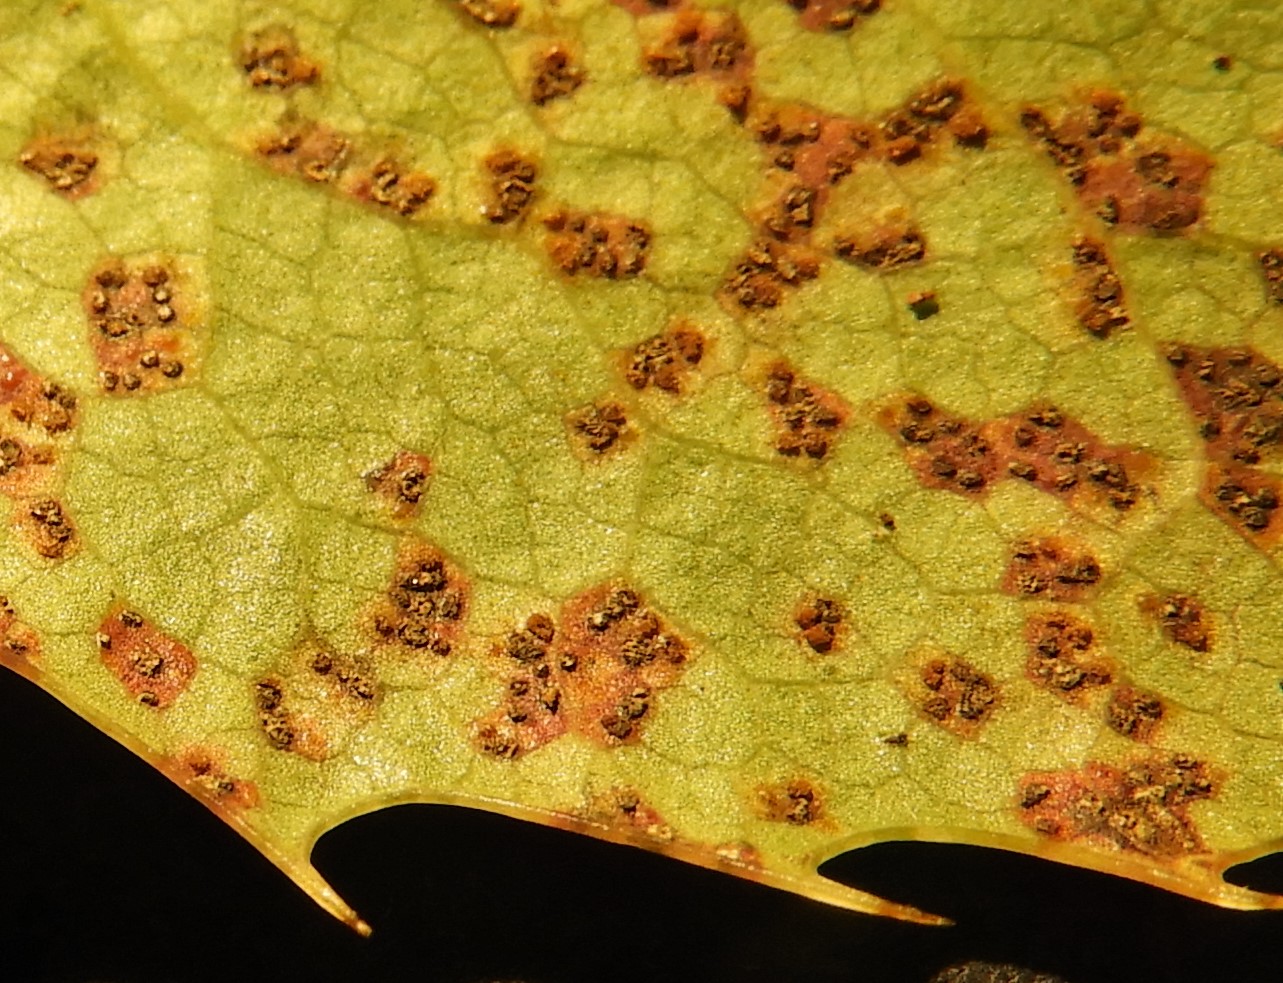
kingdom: Fungi
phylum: Basidiomycota
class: Pucciniomycetes
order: Pucciniales
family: Pucciniaceae
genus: Cumminsiella
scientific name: Cumminsiella mirabilissima
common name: mahonierust
